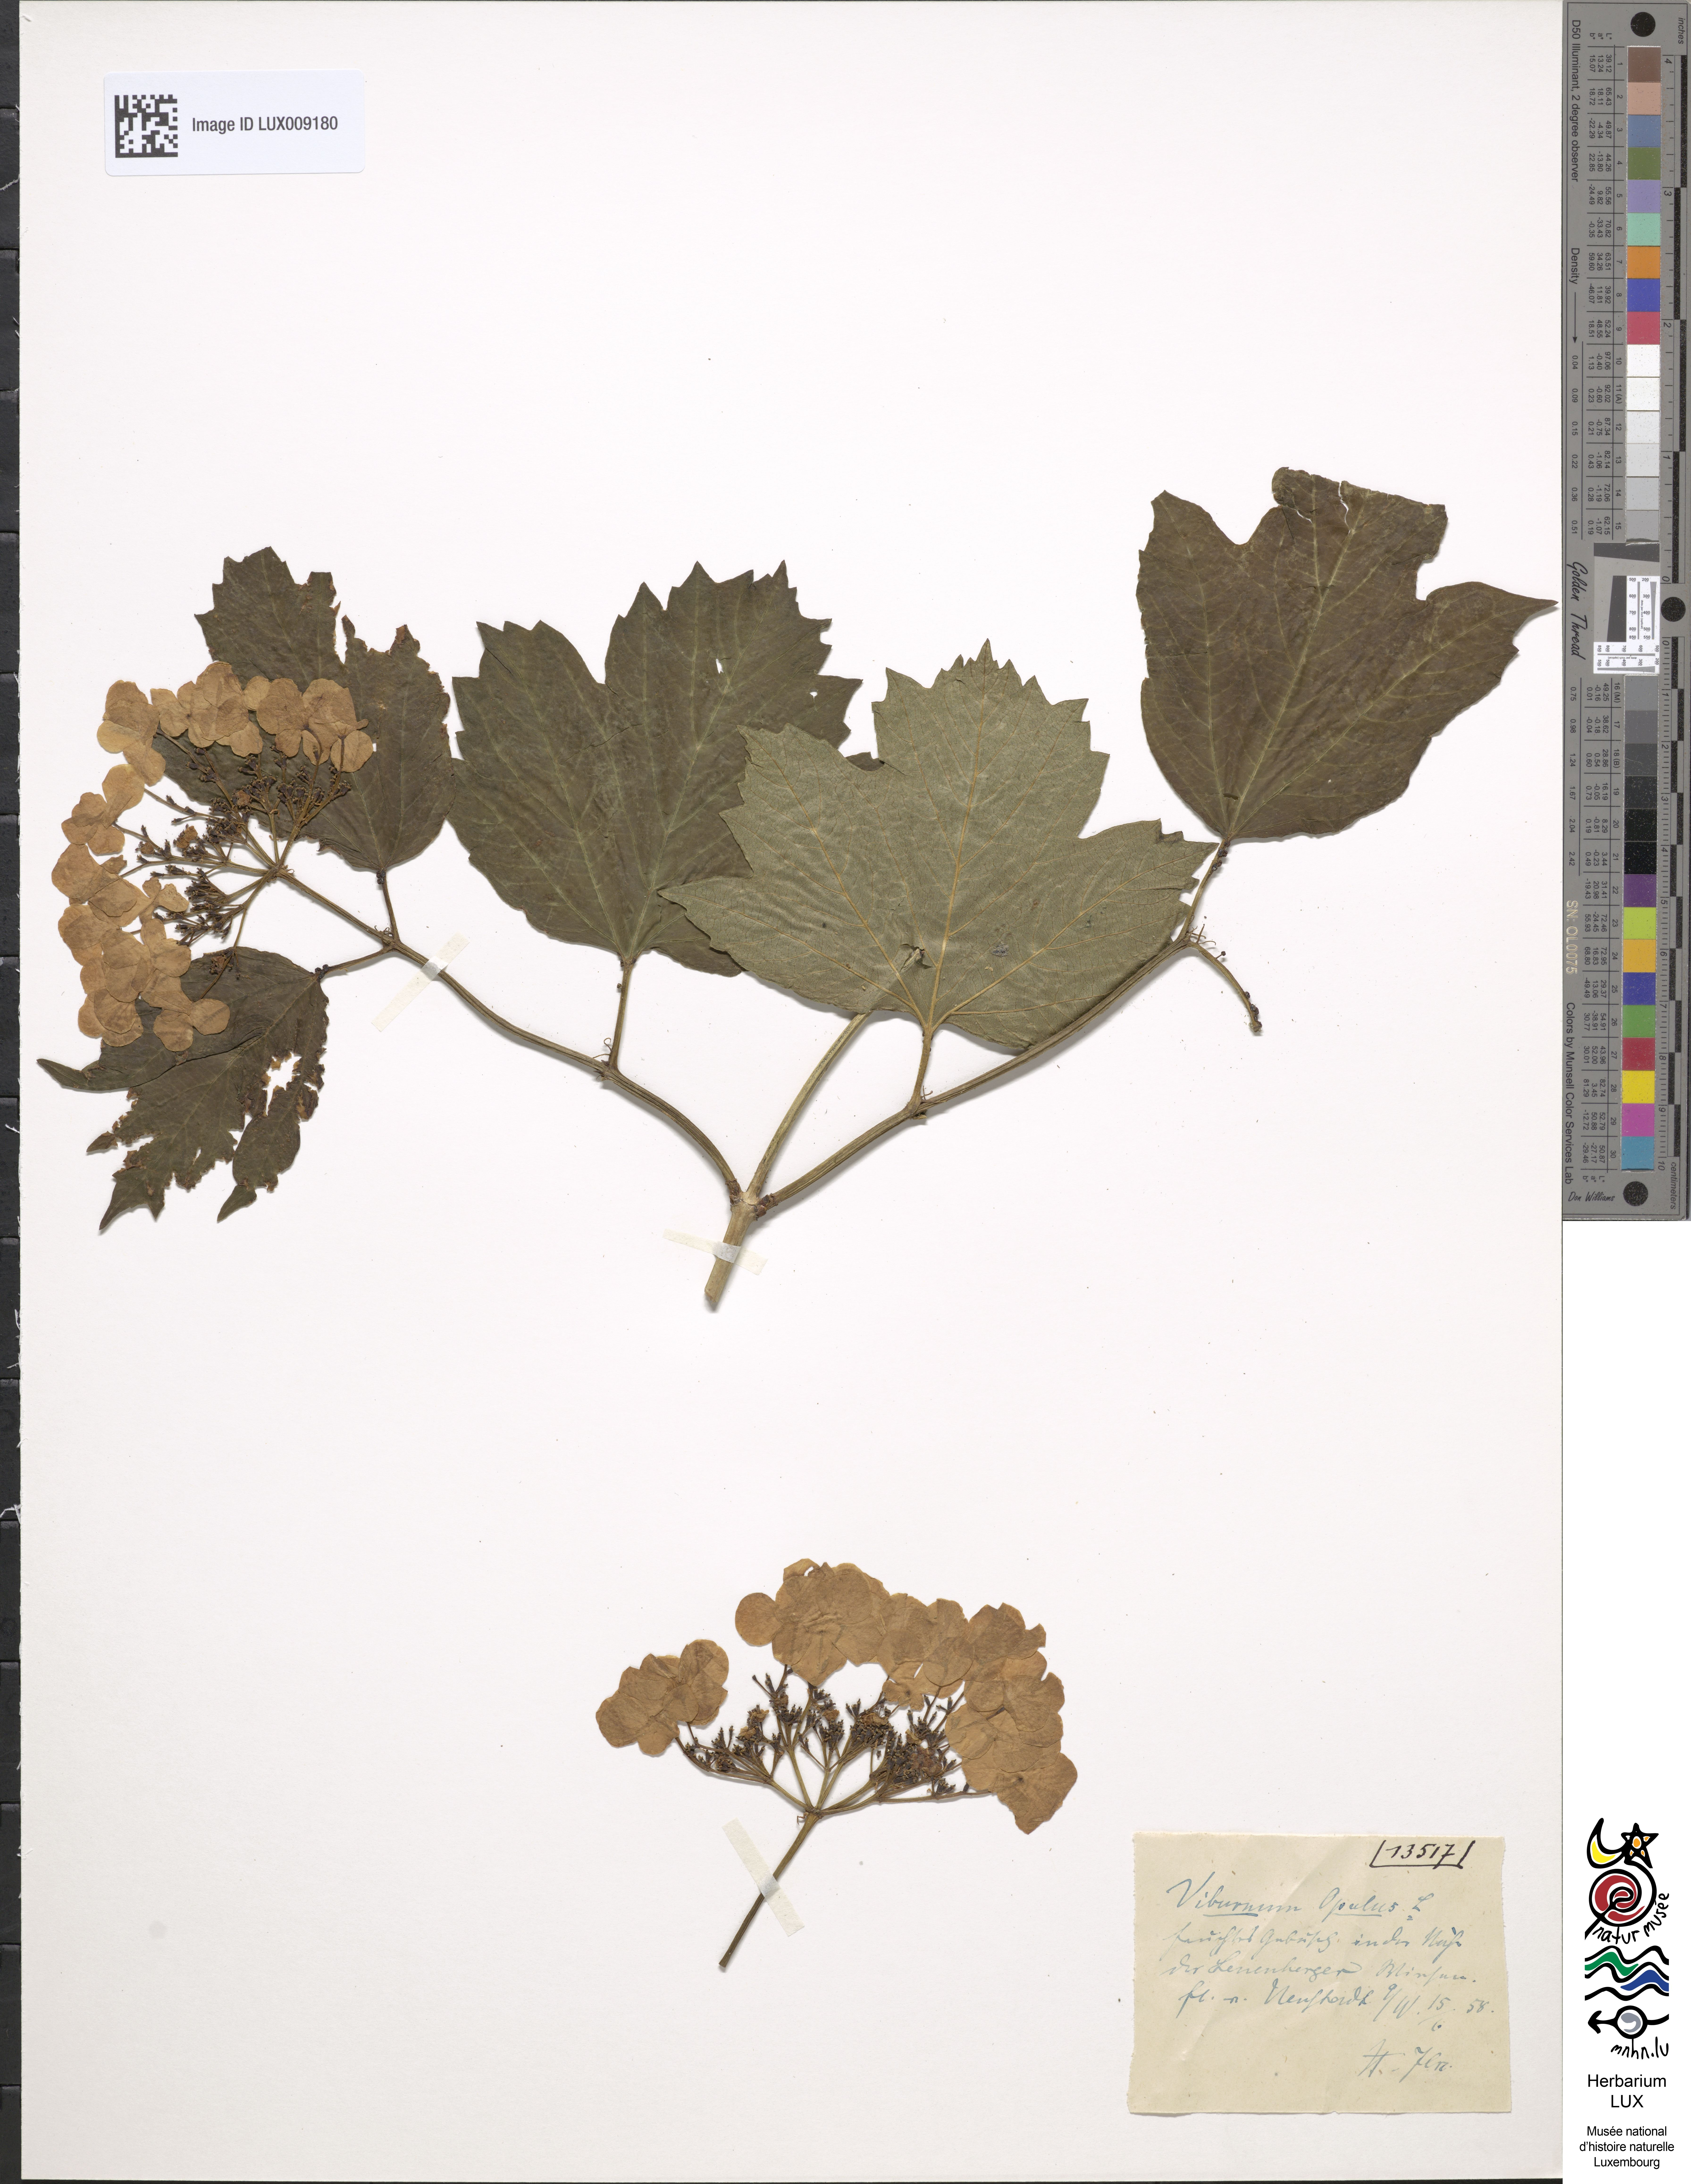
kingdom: Plantae
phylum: Tracheophyta
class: Magnoliopsida
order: Dipsacales
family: Viburnaceae
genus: Viburnum
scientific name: Viburnum opulus
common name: Guelder-rose
